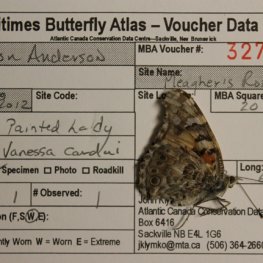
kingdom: Animalia
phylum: Arthropoda
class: Insecta
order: Lepidoptera
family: Nymphalidae
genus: Vanessa
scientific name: Vanessa cardui
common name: Painted Lady
